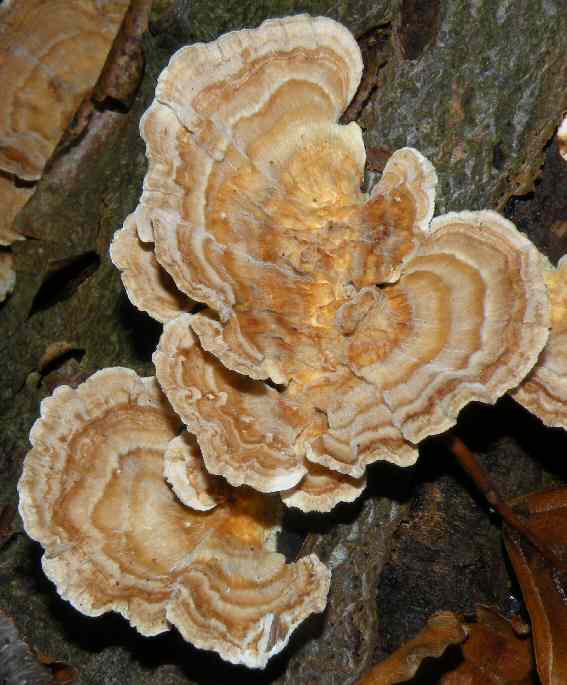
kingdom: Fungi
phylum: Basidiomycota
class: Agaricomycetes
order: Polyporales
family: Polyporaceae
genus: Trametes
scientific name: Trametes versicolor
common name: broget læderporesvamp
